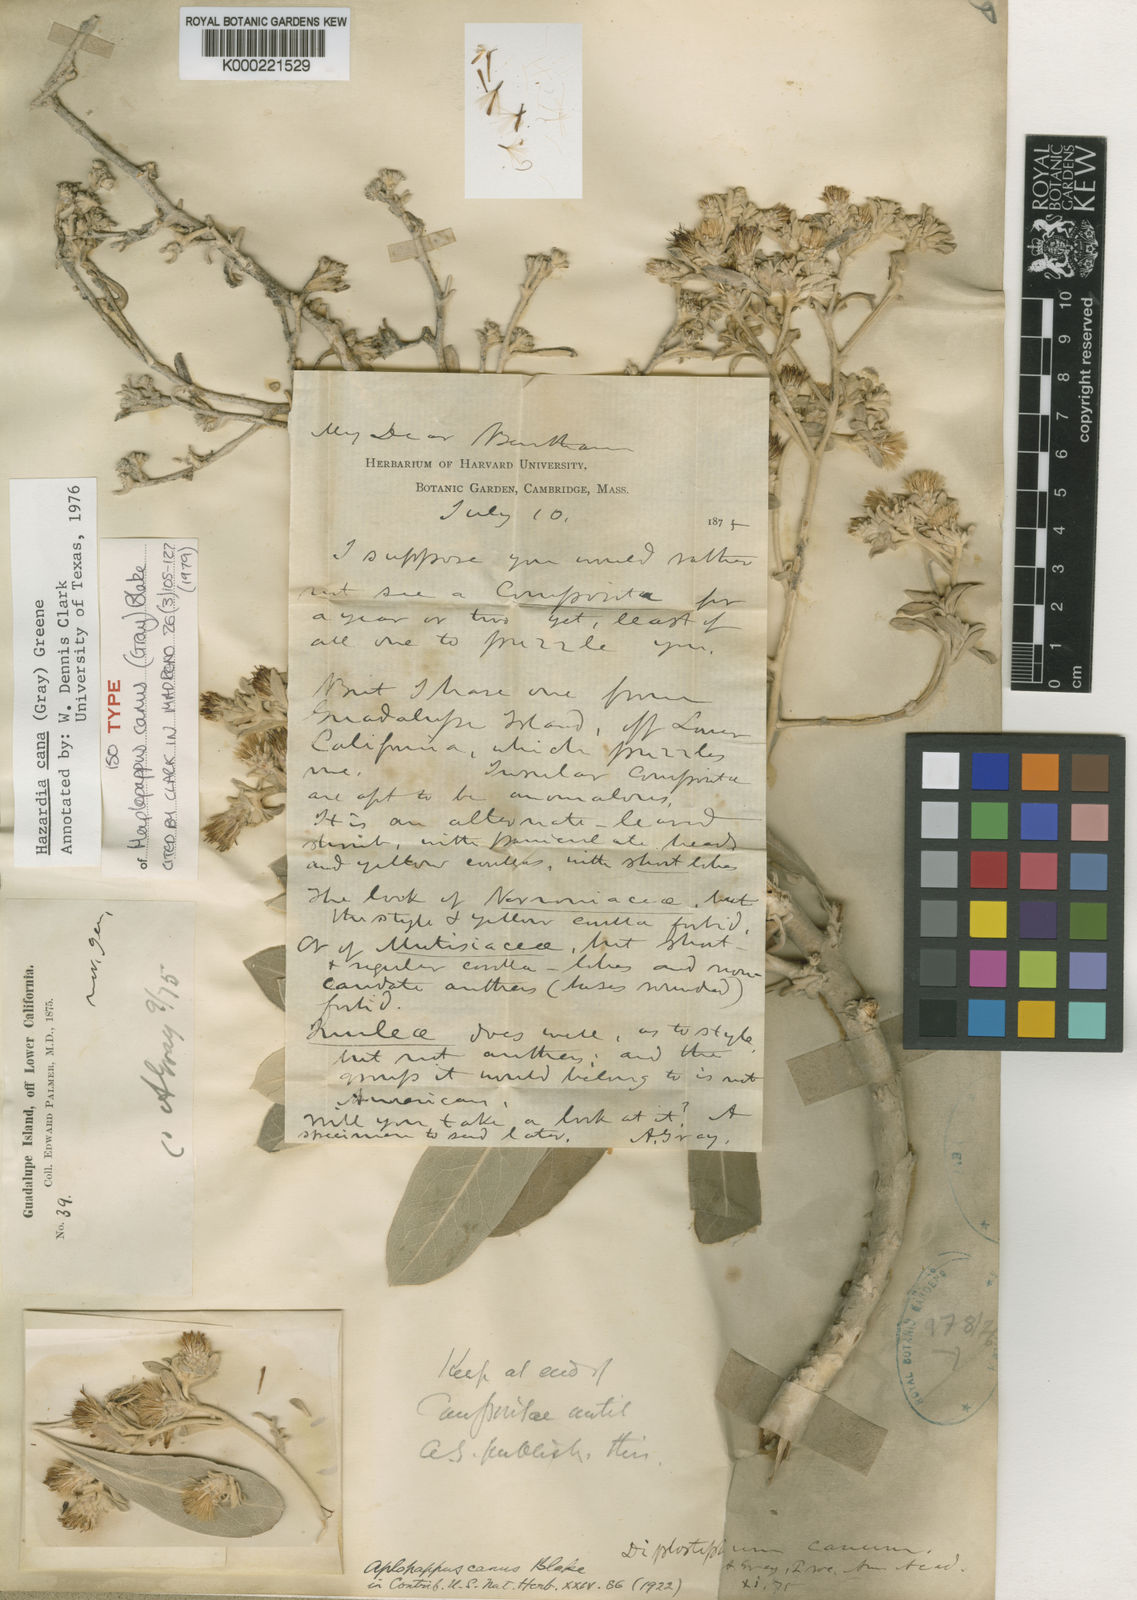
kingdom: Plantae
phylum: Tracheophyta
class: Magnoliopsida
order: Asterales
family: Asteraceae
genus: Hazardia
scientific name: Hazardia cana
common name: San clemente island bristleweed
